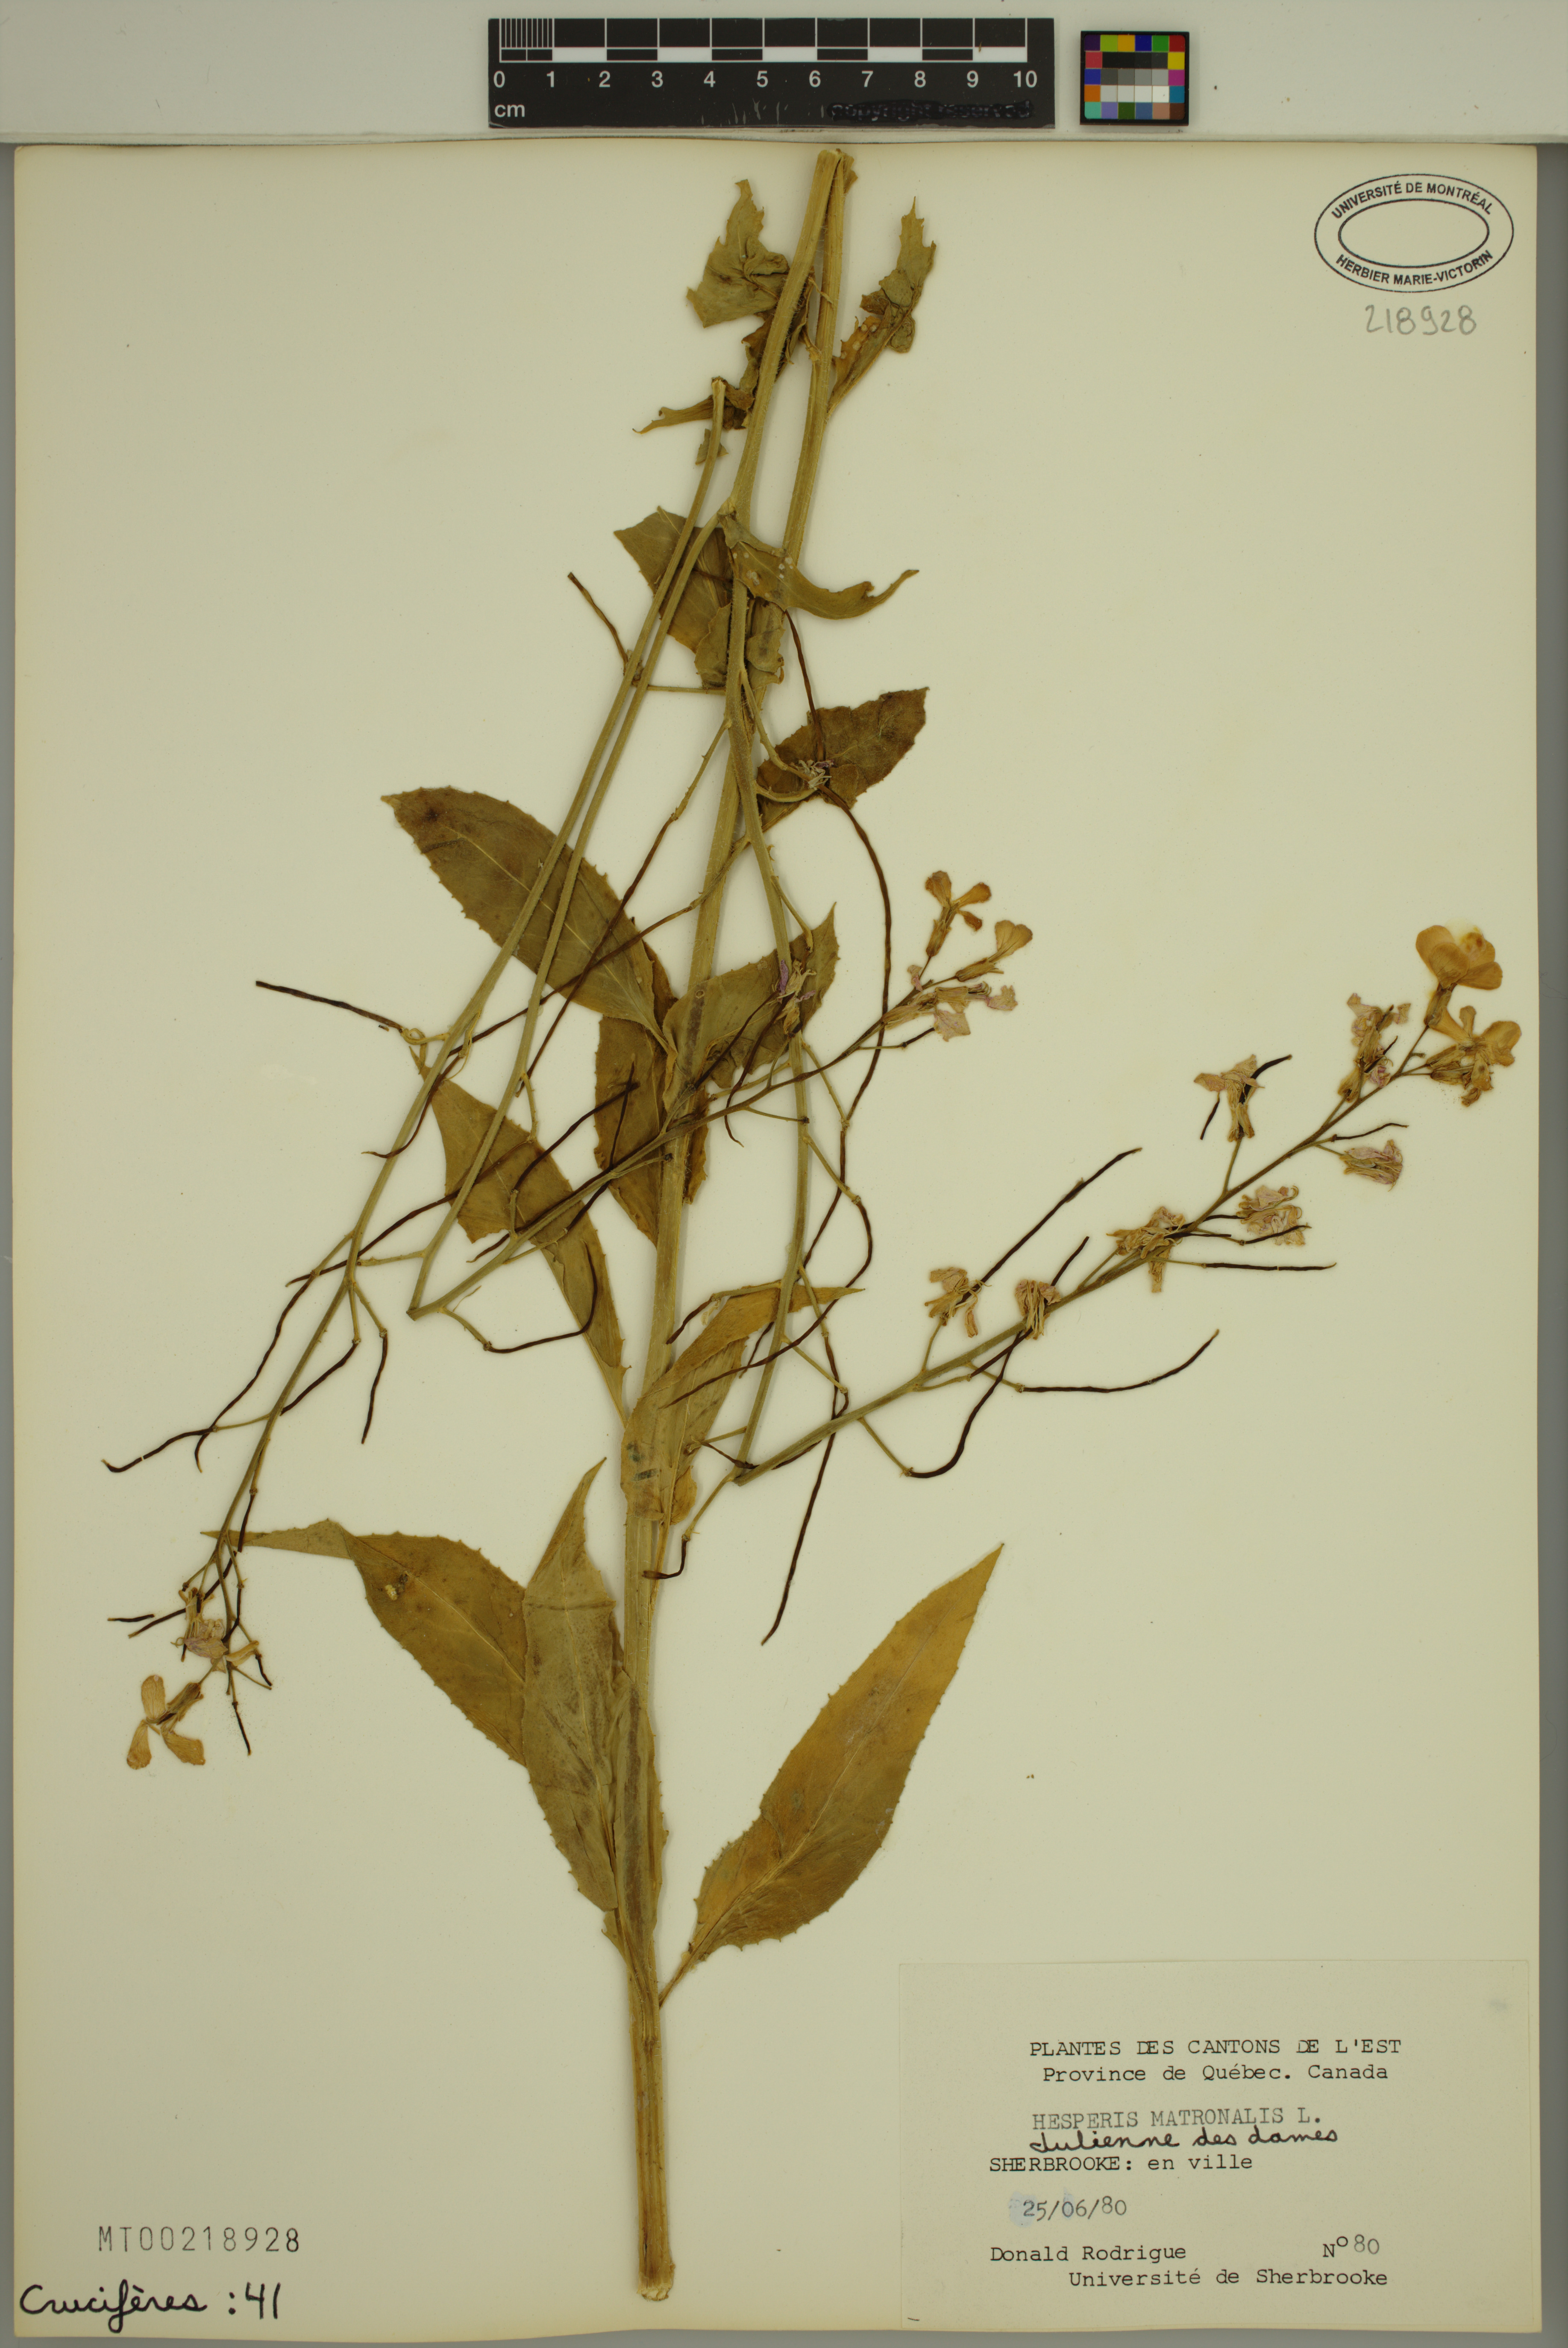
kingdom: Plantae
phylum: Tracheophyta
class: Magnoliopsida
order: Brassicales
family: Brassicaceae
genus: Hesperis
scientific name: Hesperis matronalis
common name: Dame's-violet
